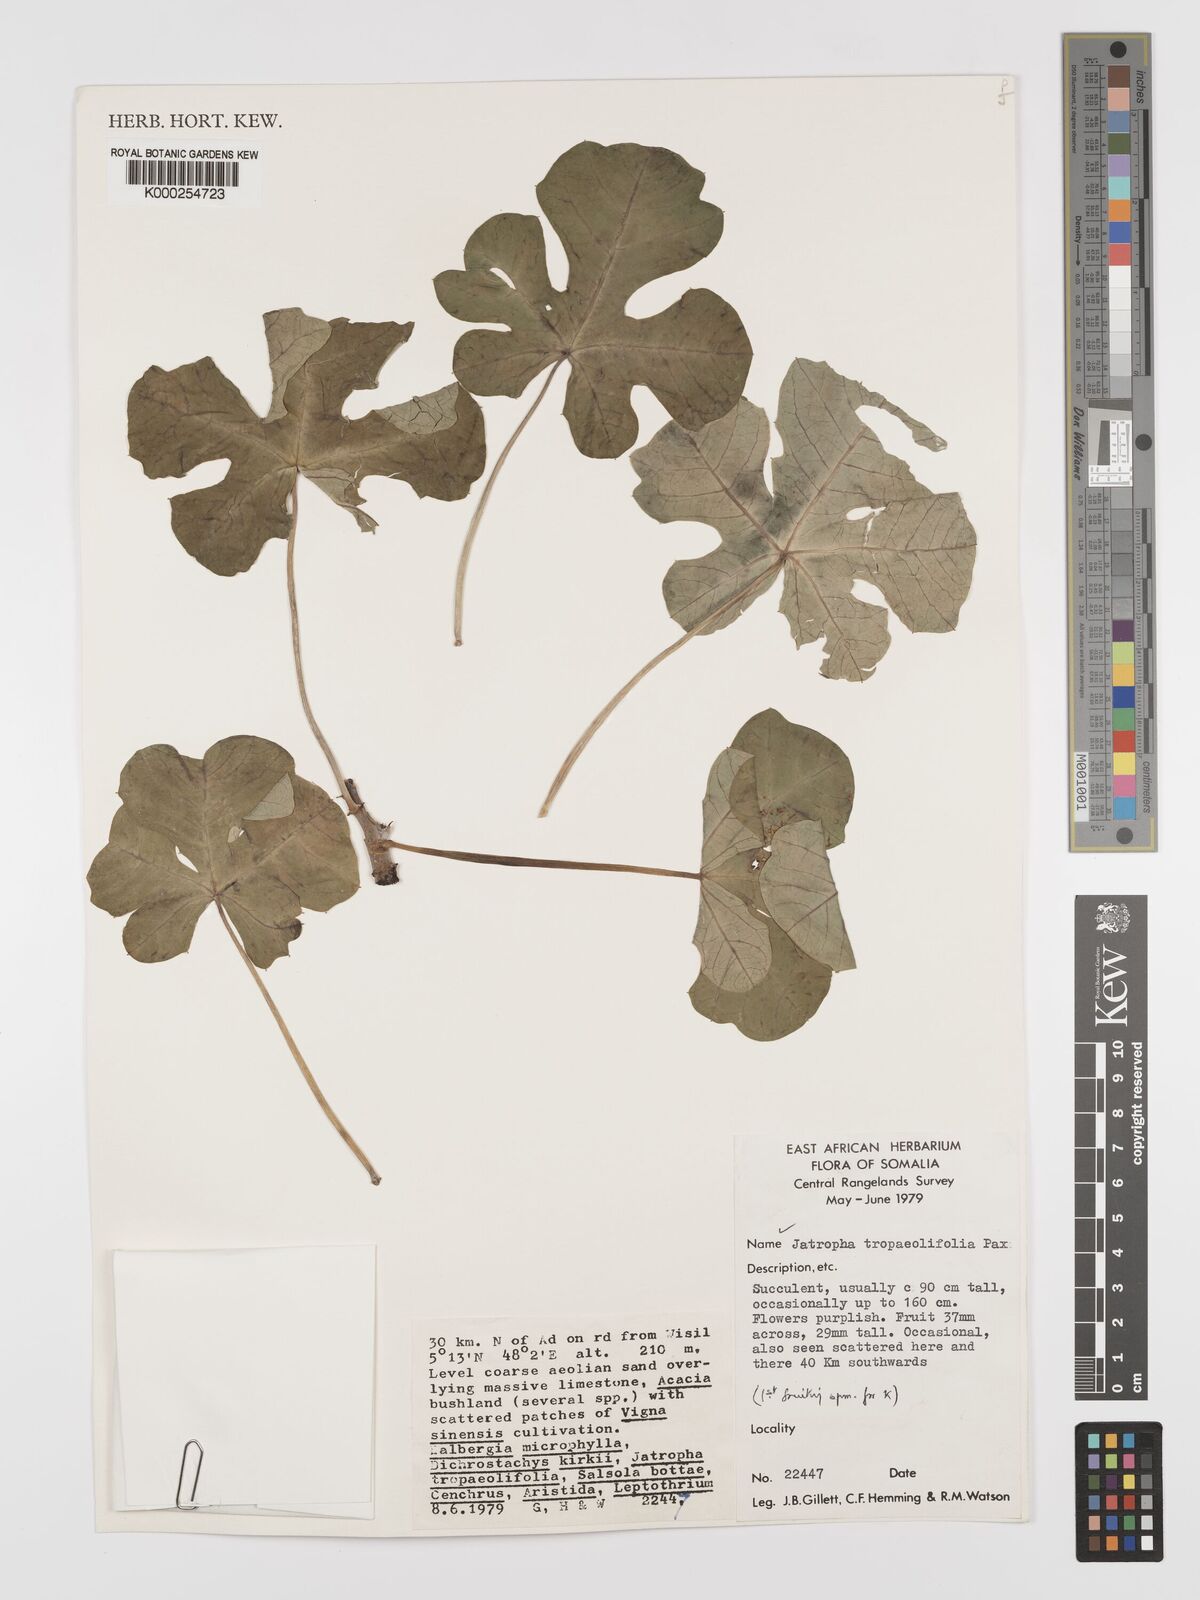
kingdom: Plantae
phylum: Tracheophyta
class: Magnoliopsida
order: Malpighiales
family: Euphorbiaceae
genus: Jatropha
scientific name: Jatropha tropaeolifolia
